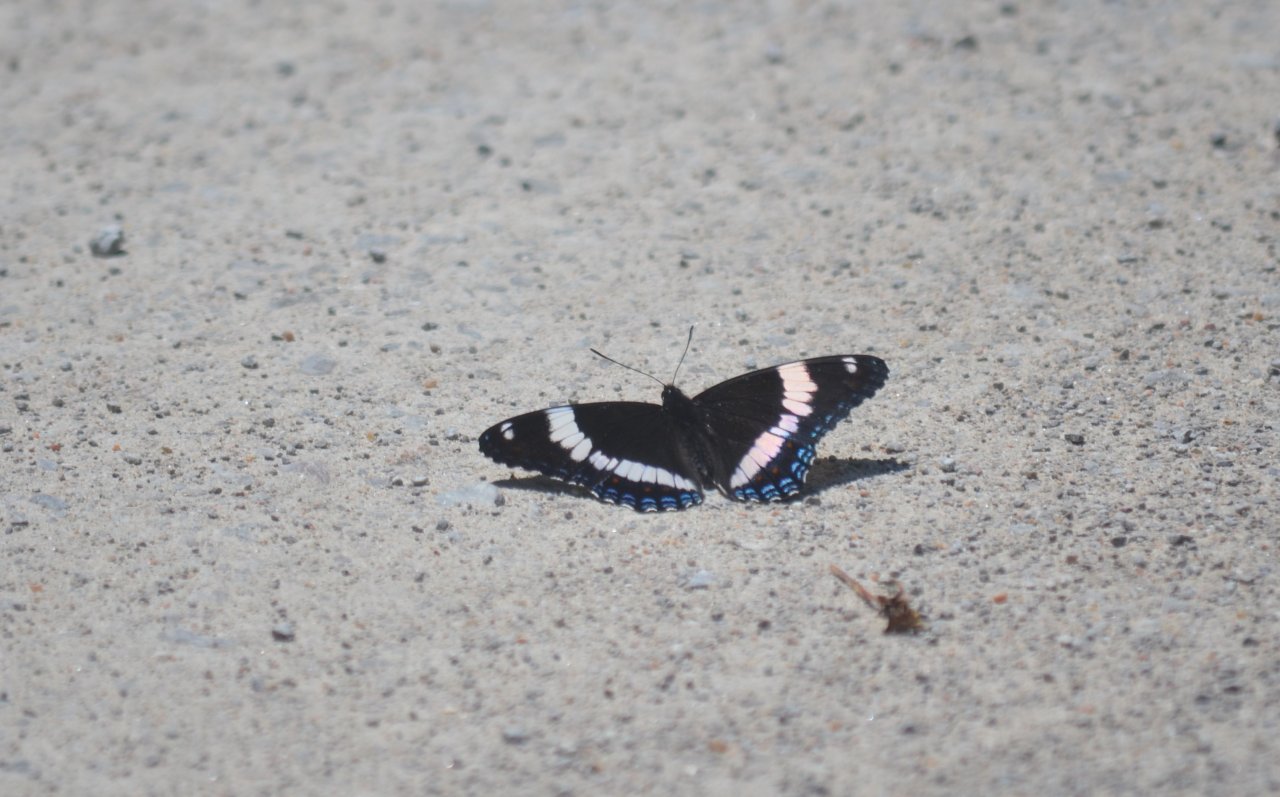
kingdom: Animalia
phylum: Arthropoda
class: Insecta
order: Lepidoptera
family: Nymphalidae
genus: Limenitis
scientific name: Limenitis arthemis
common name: Red-spotted Admiral
